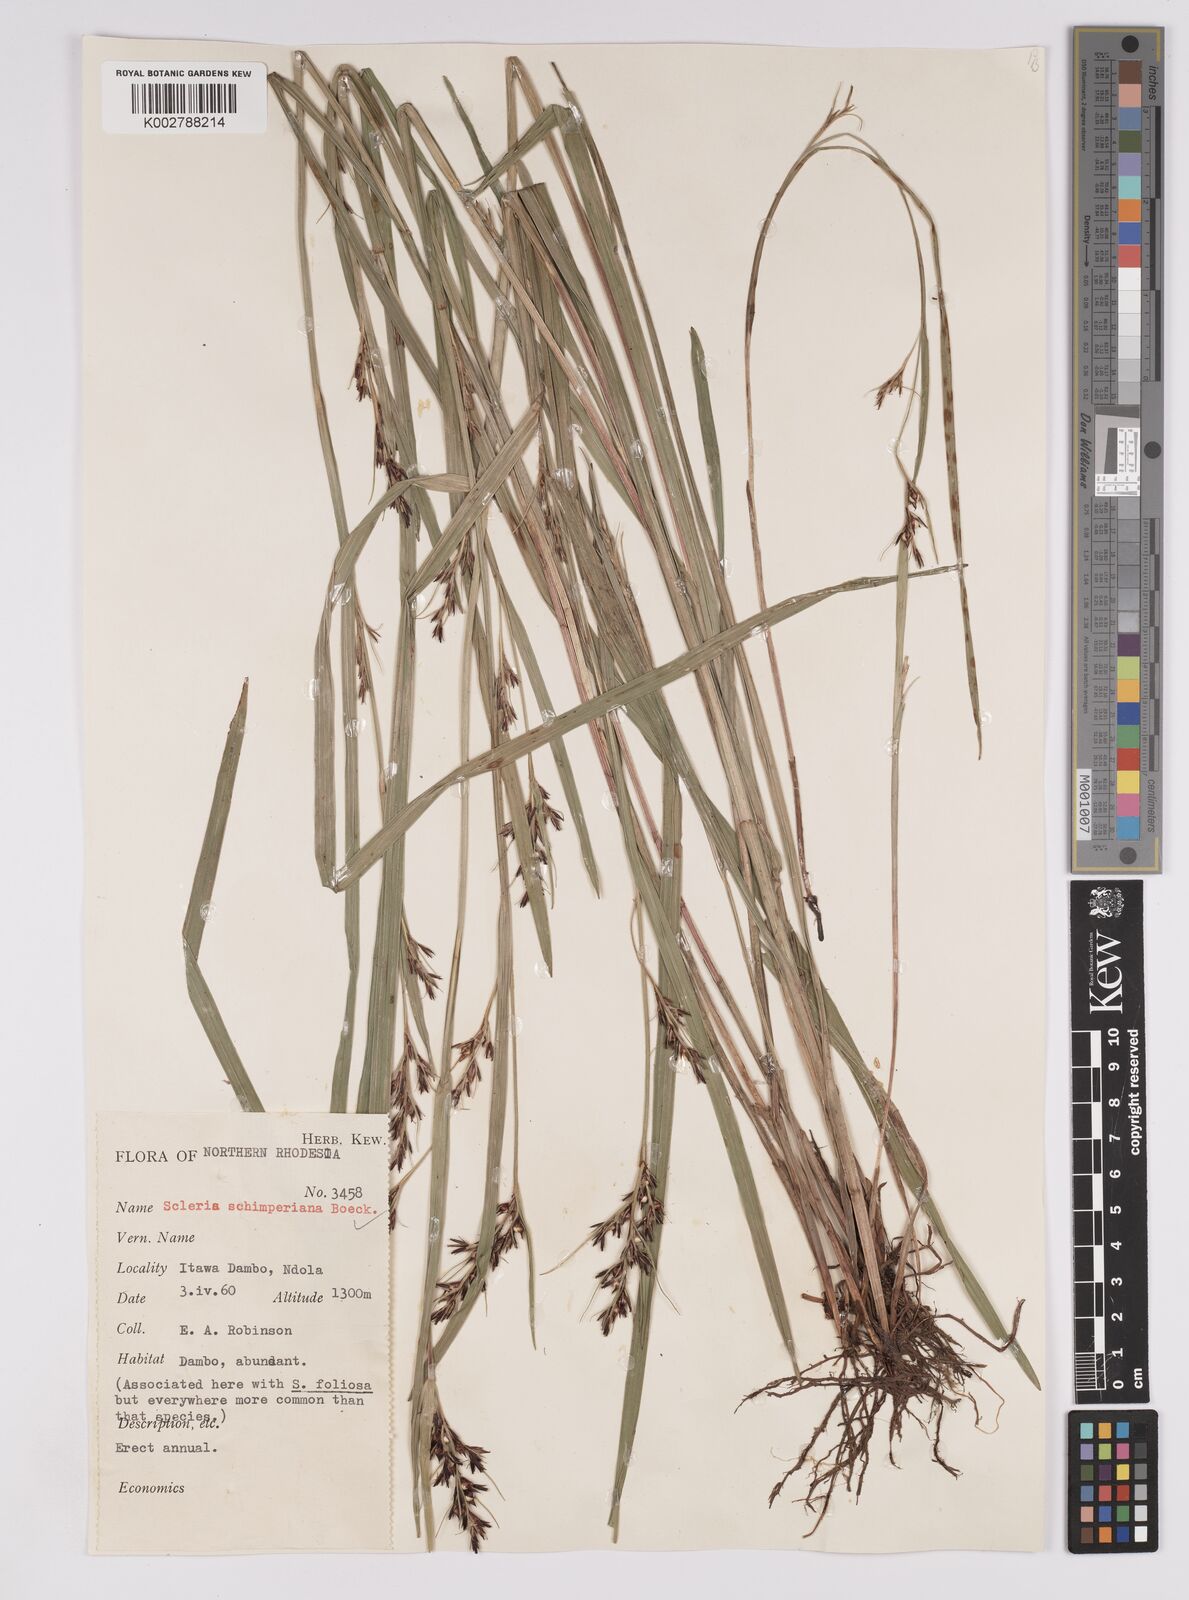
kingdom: Plantae
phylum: Tracheophyta
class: Liliopsida
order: Poales
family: Cyperaceae
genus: Scleria
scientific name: Scleria schimperiana
